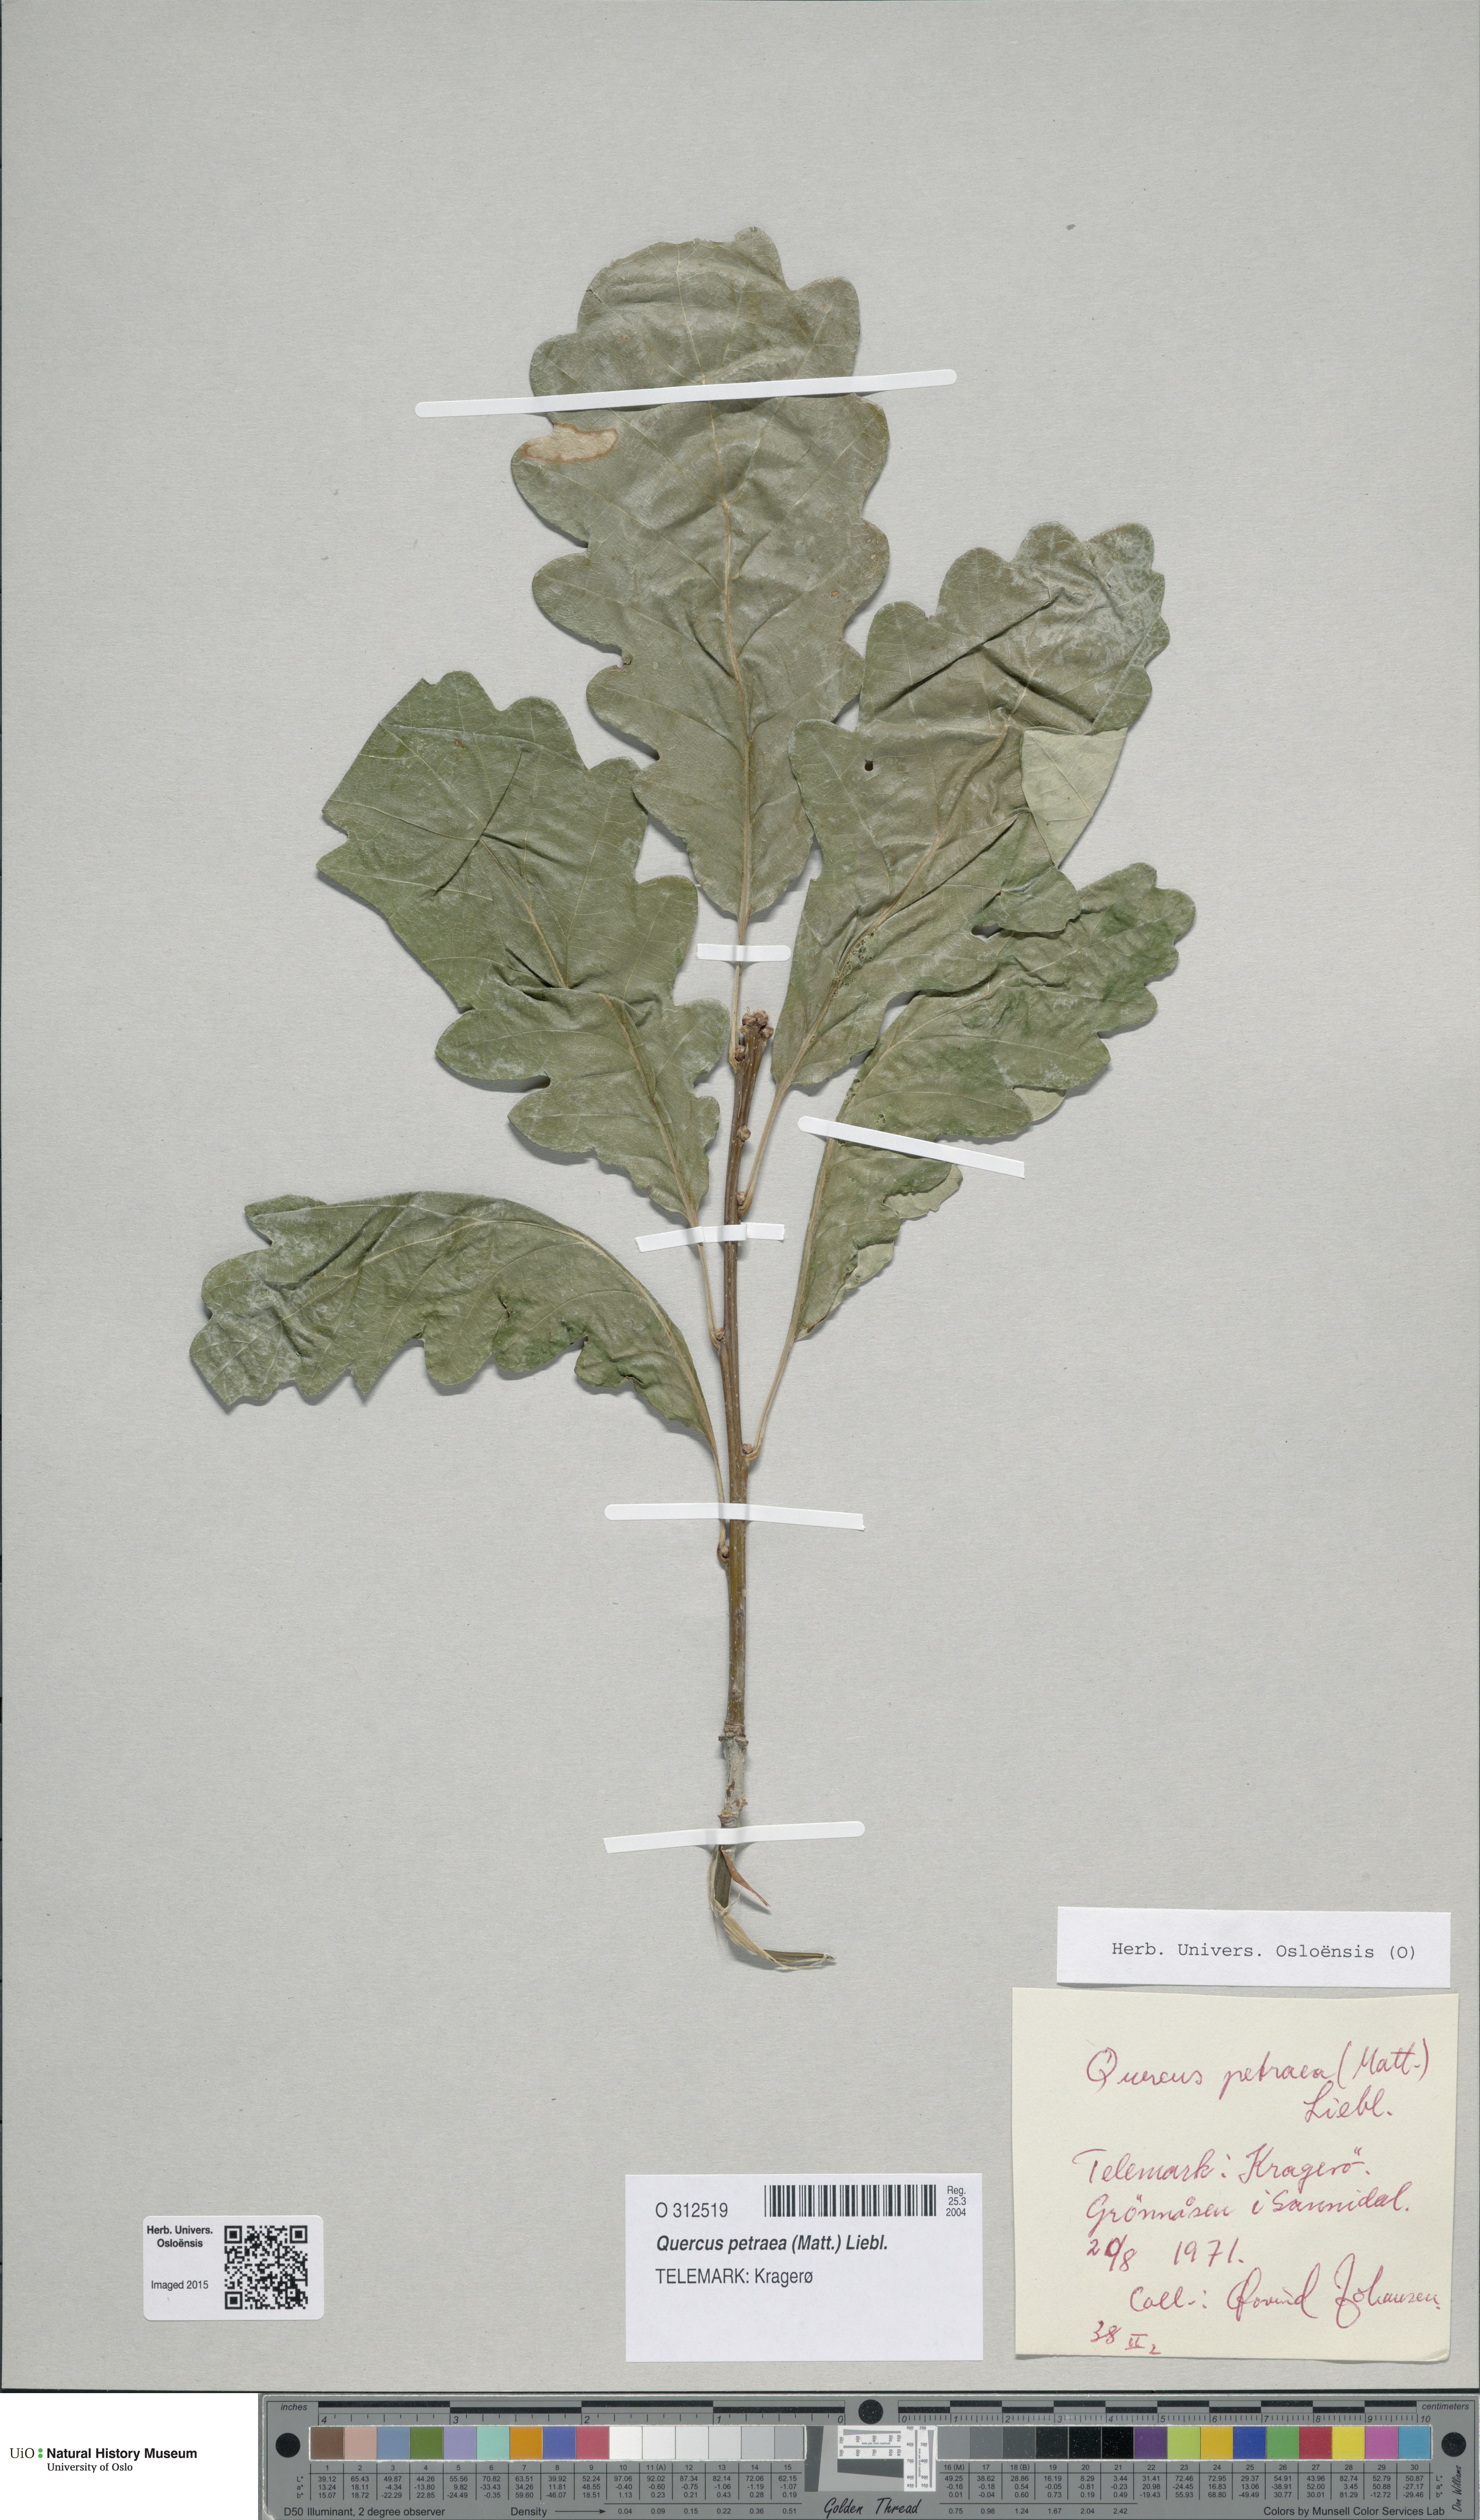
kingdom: Plantae
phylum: Tracheophyta
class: Magnoliopsida
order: Fagales
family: Fagaceae
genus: Quercus
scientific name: Quercus petraea
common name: Sessile oak
